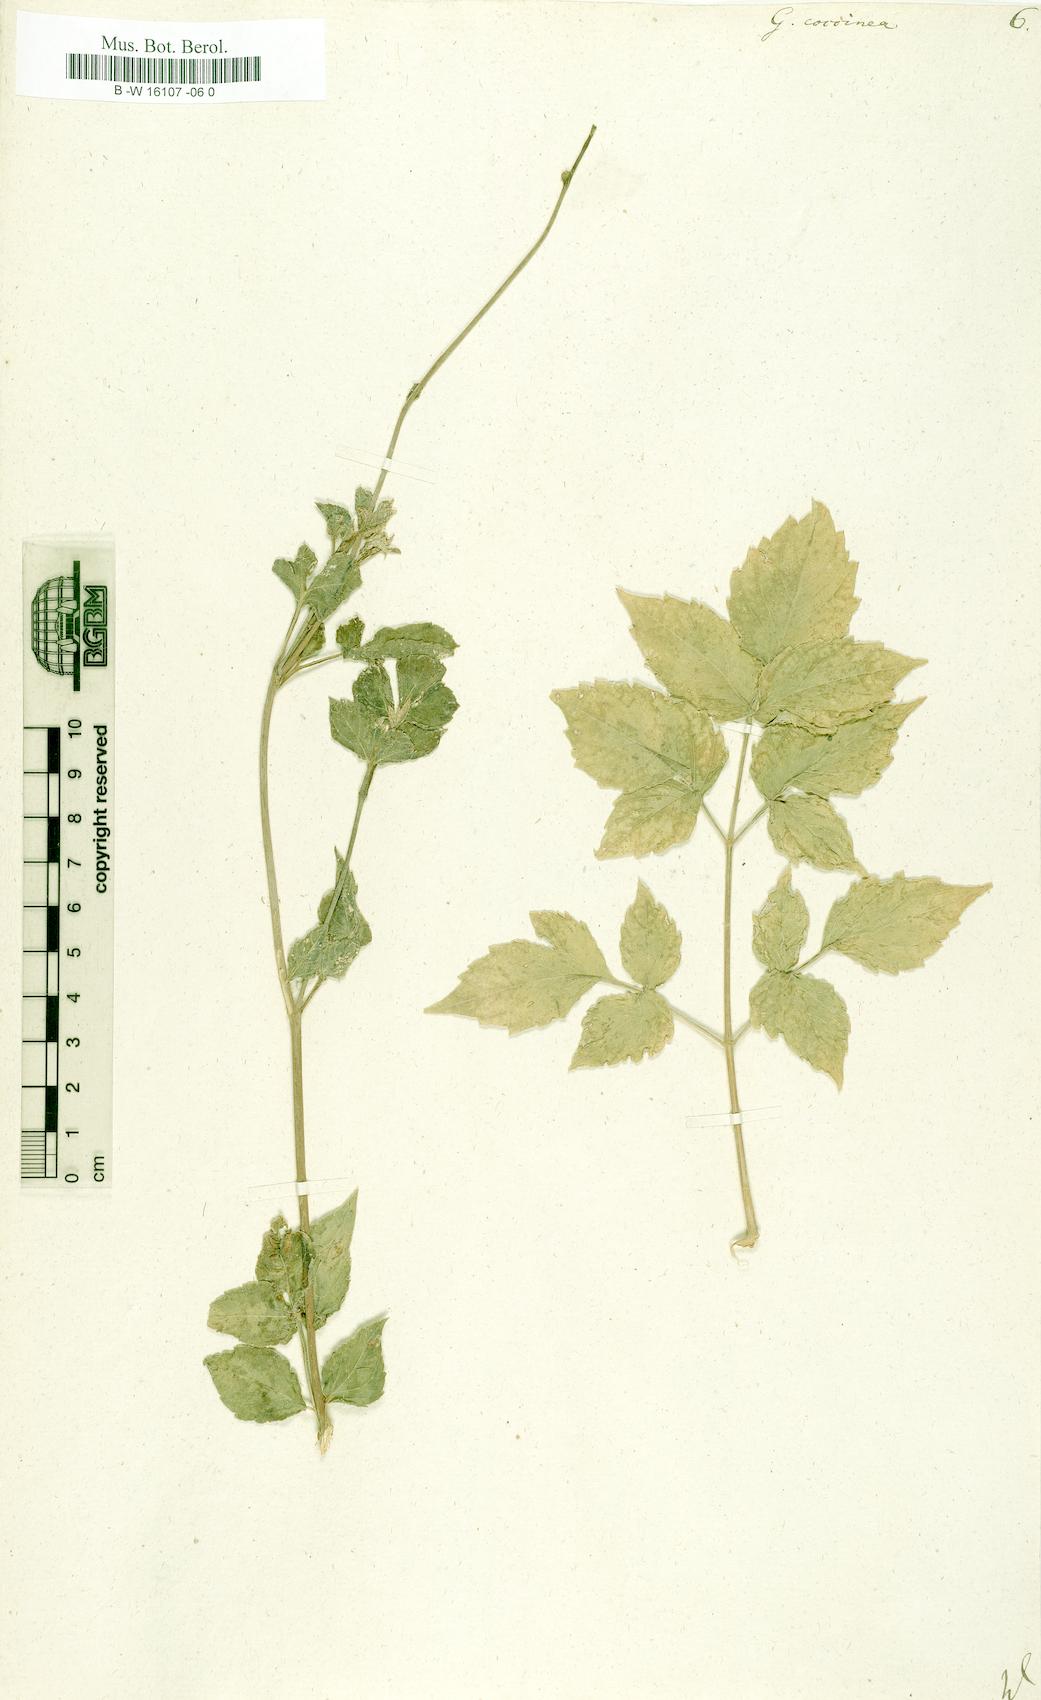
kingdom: Plantae
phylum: Tracheophyta
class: Magnoliopsida
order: Asterales
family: Asteraceae
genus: Dahlia
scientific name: Dahlia Georgina coccinea
